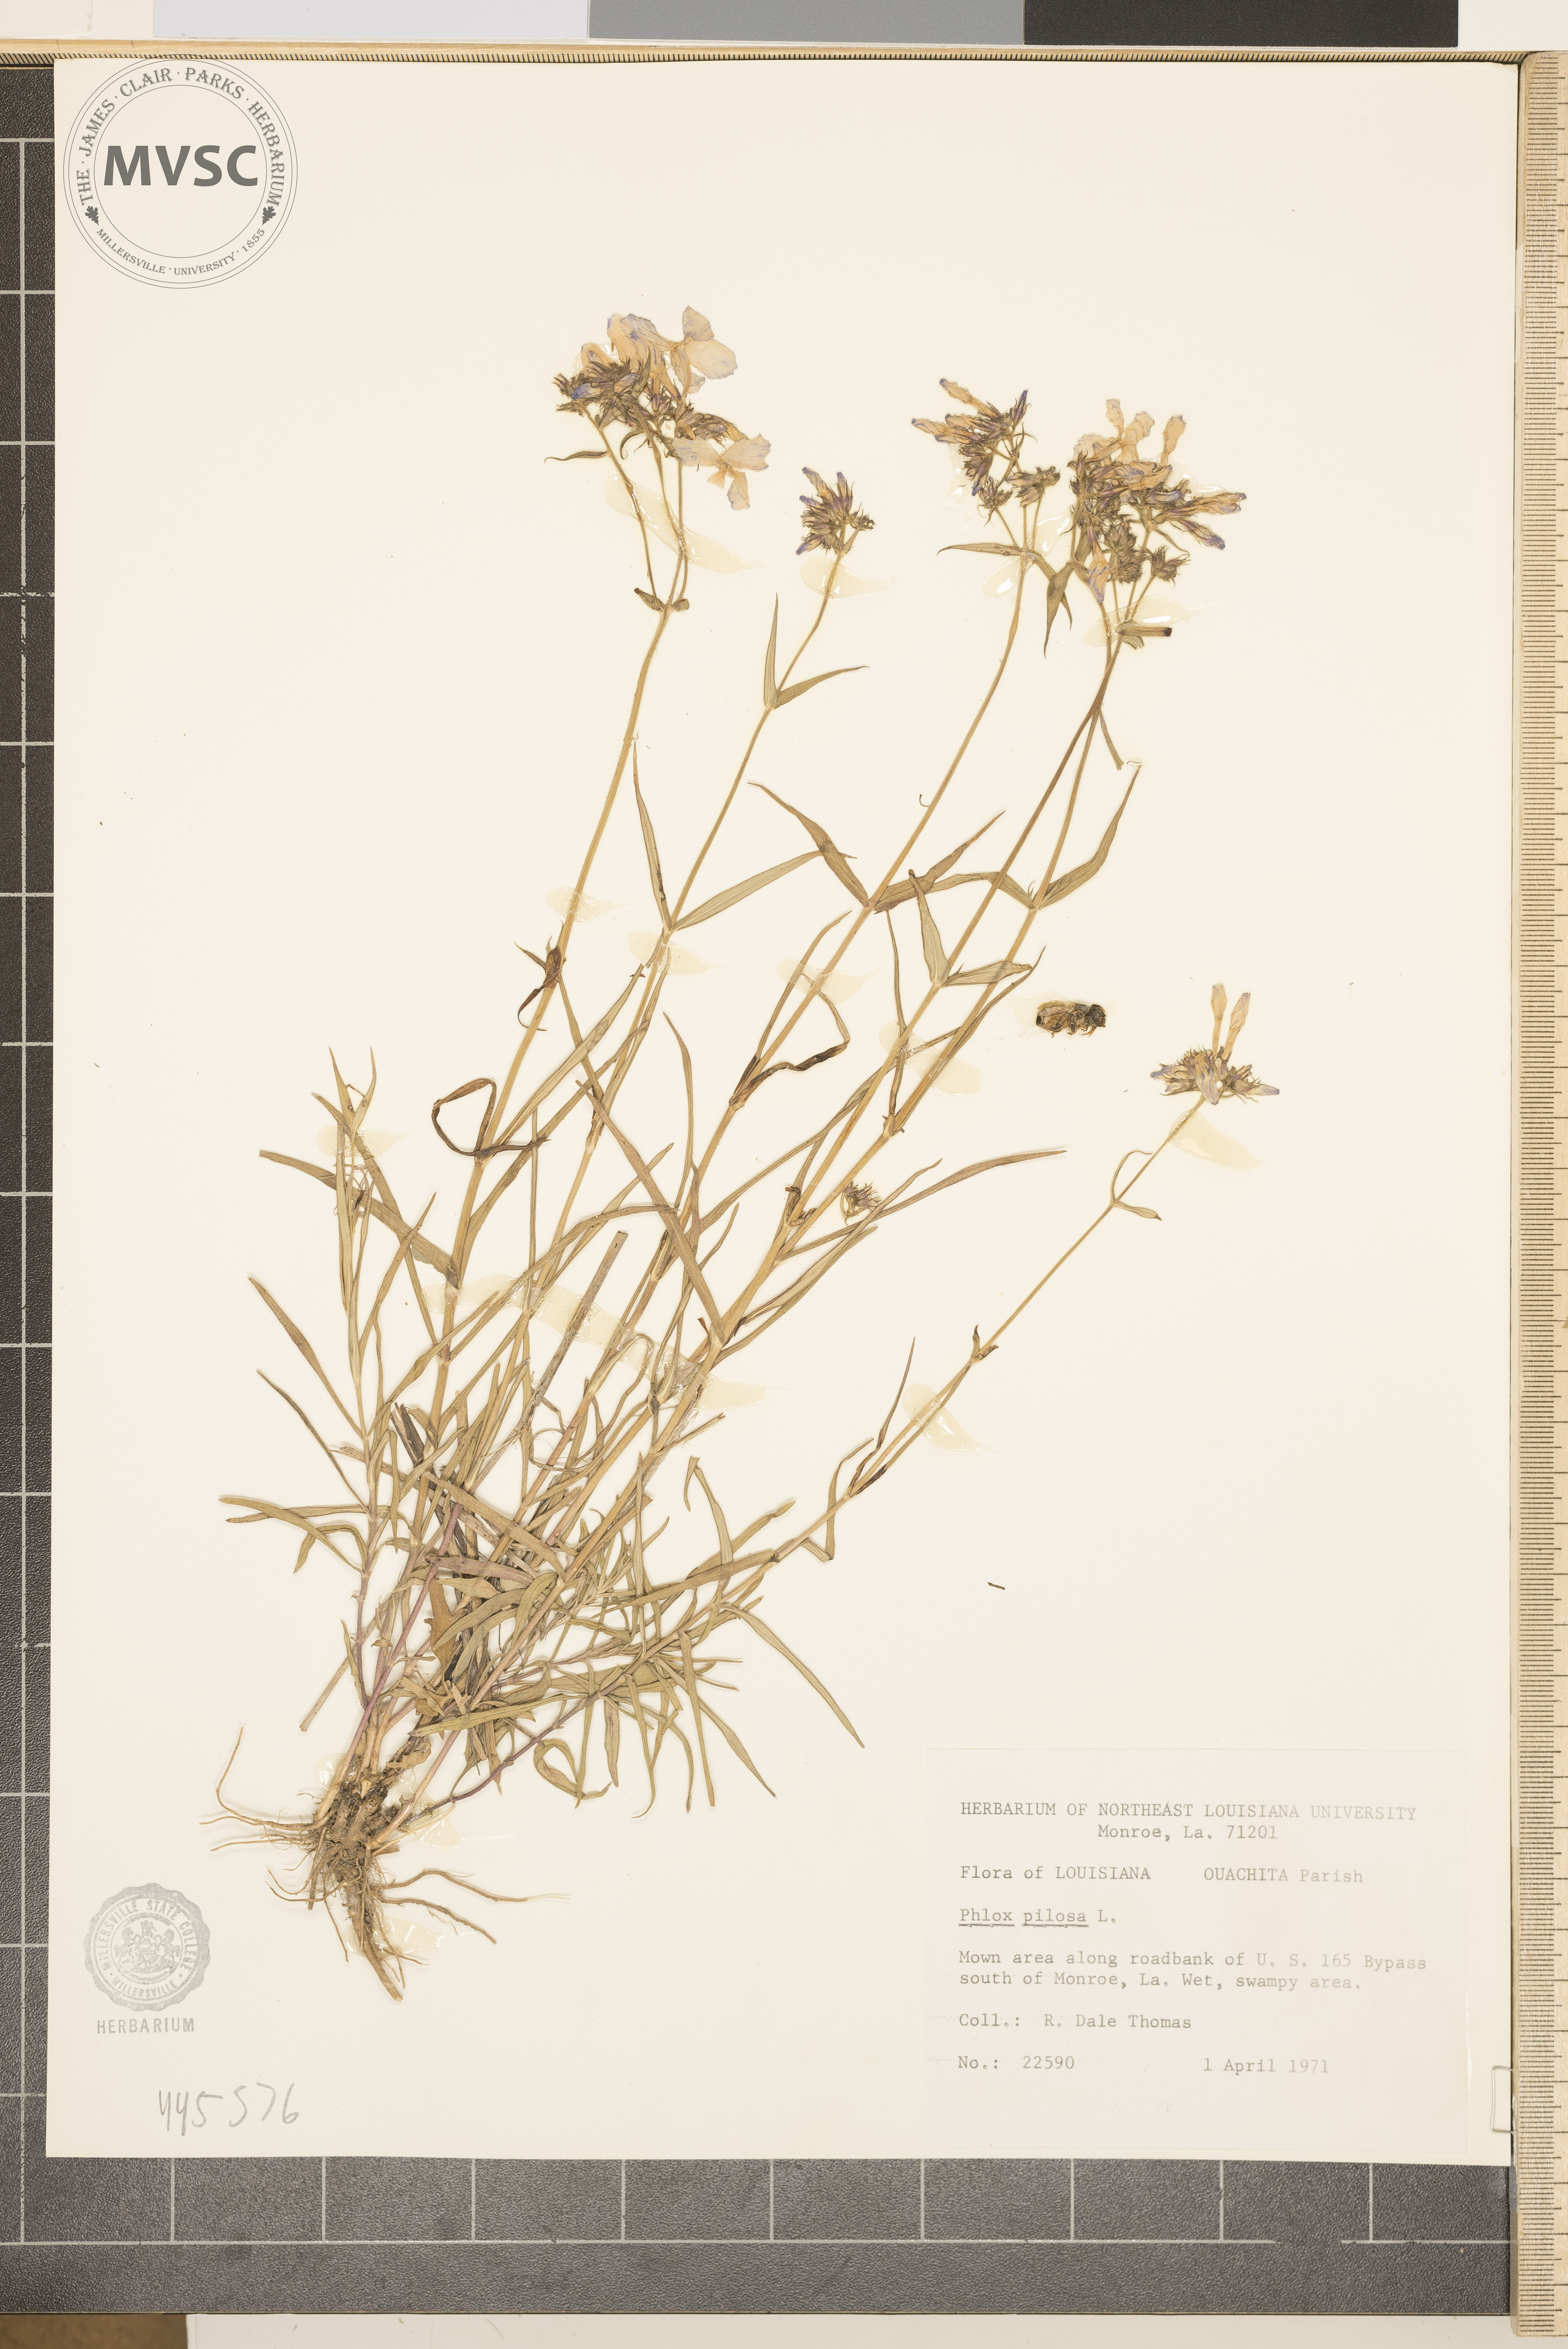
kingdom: Plantae
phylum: Tracheophyta
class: Magnoliopsida
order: Ericales
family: Polemoniaceae
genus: Phlox
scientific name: Phlox pilosa
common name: Prairie phlox
